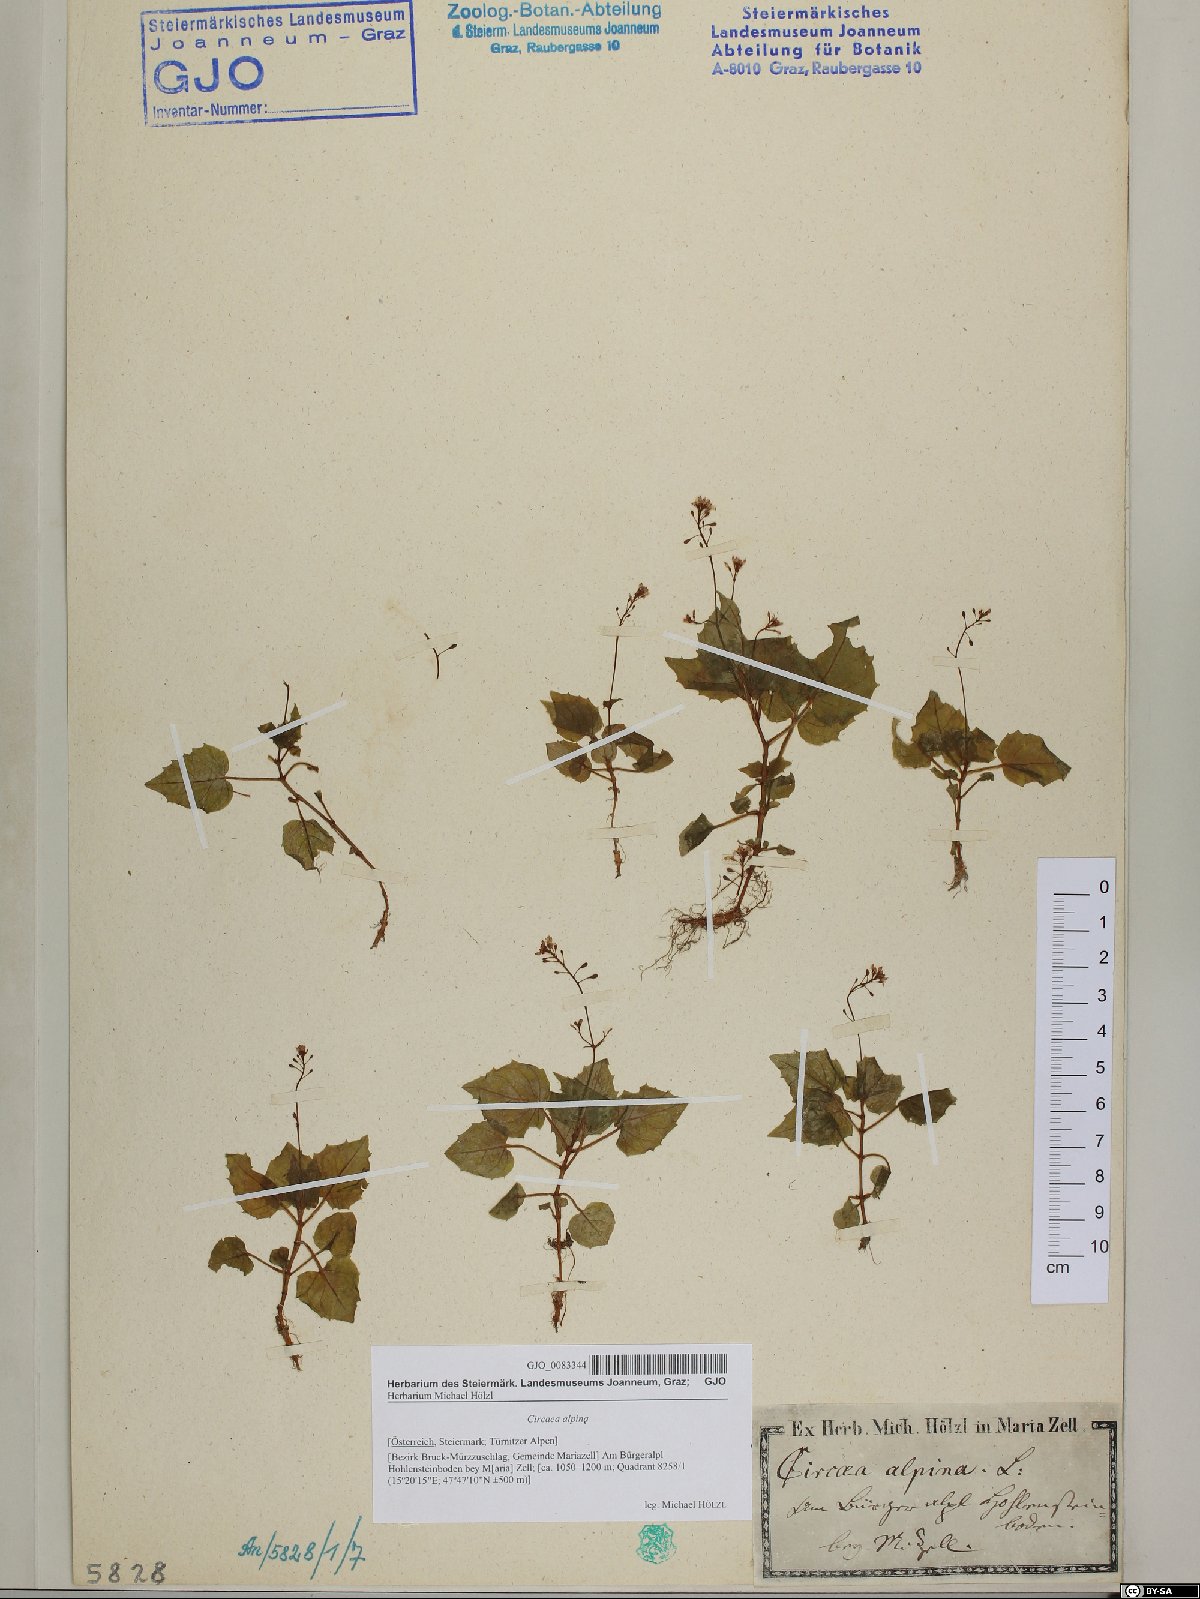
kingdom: Plantae
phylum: Tracheophyta
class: Magnoliopsida
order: Myrtales
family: Onagraceae
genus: Circaea
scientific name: Circaea alpina
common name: Alpine enchanter's-nightshade
